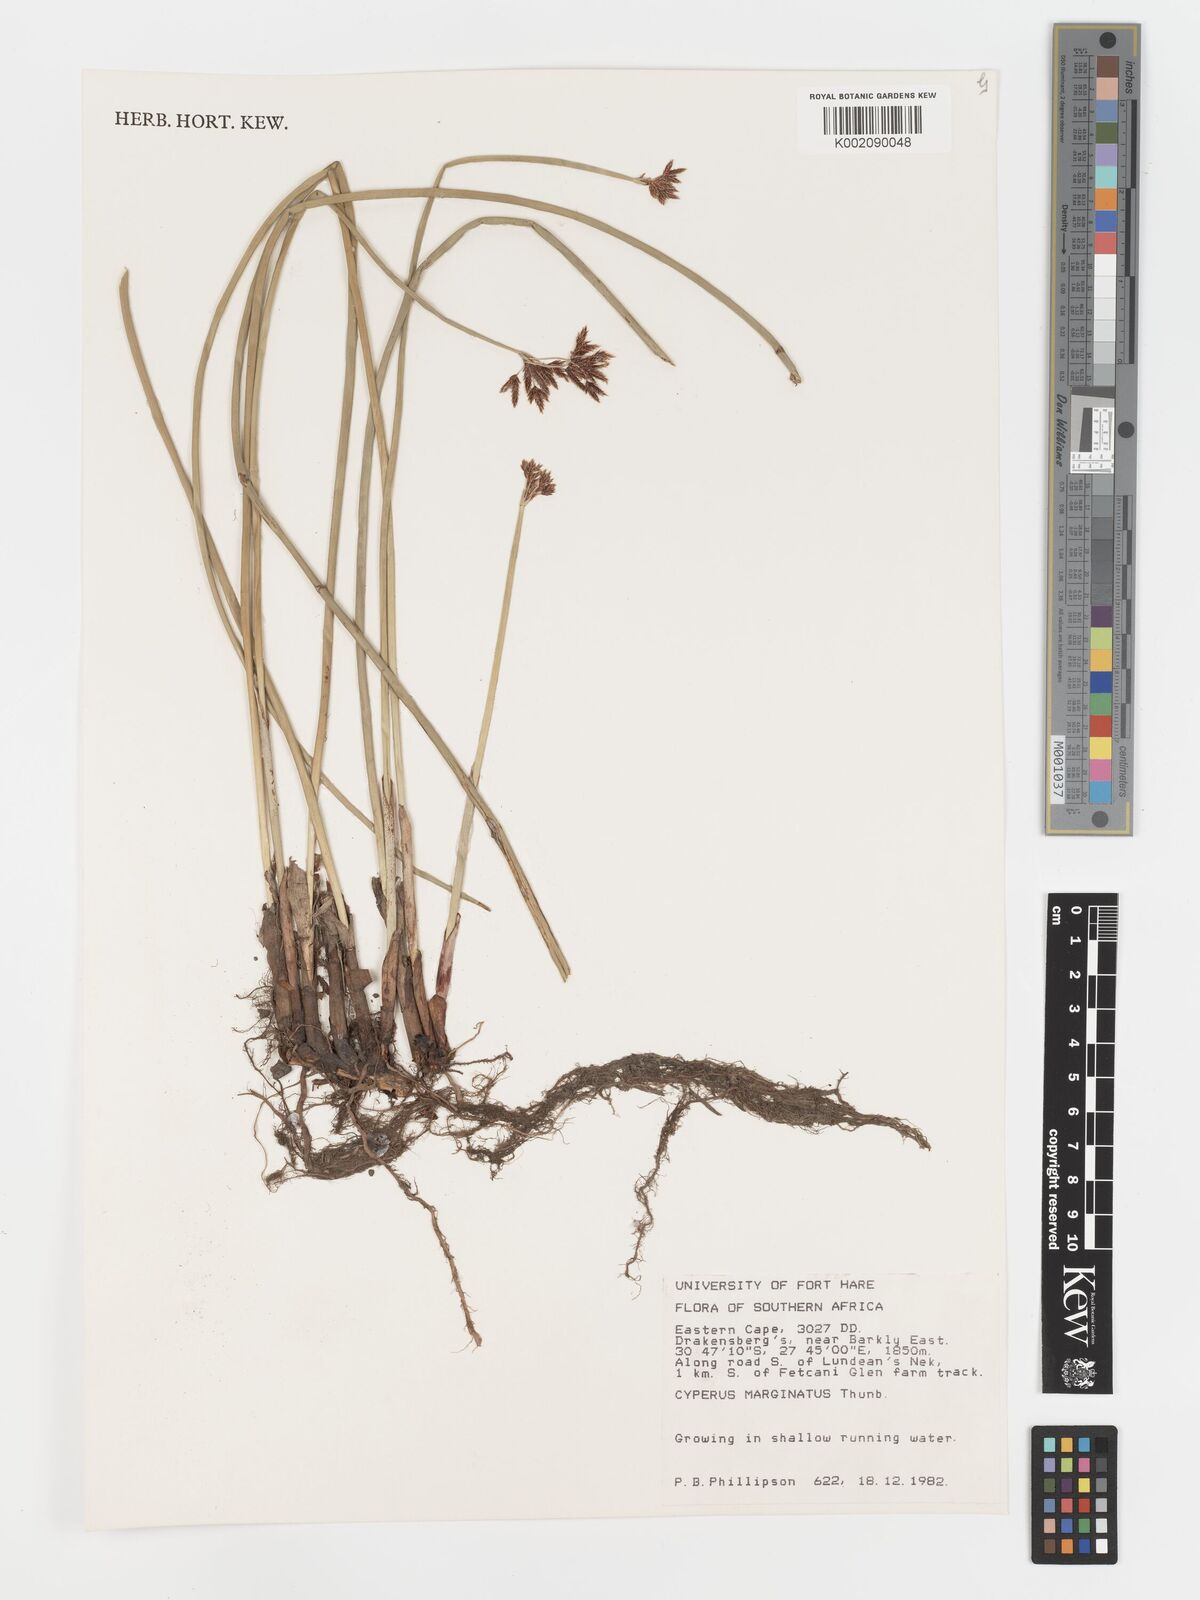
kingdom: Plantae
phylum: Tracheophyta
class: Liliopsida
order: Poales
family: Cyperaceae
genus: Cyperus
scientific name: Cyperus marginatus
